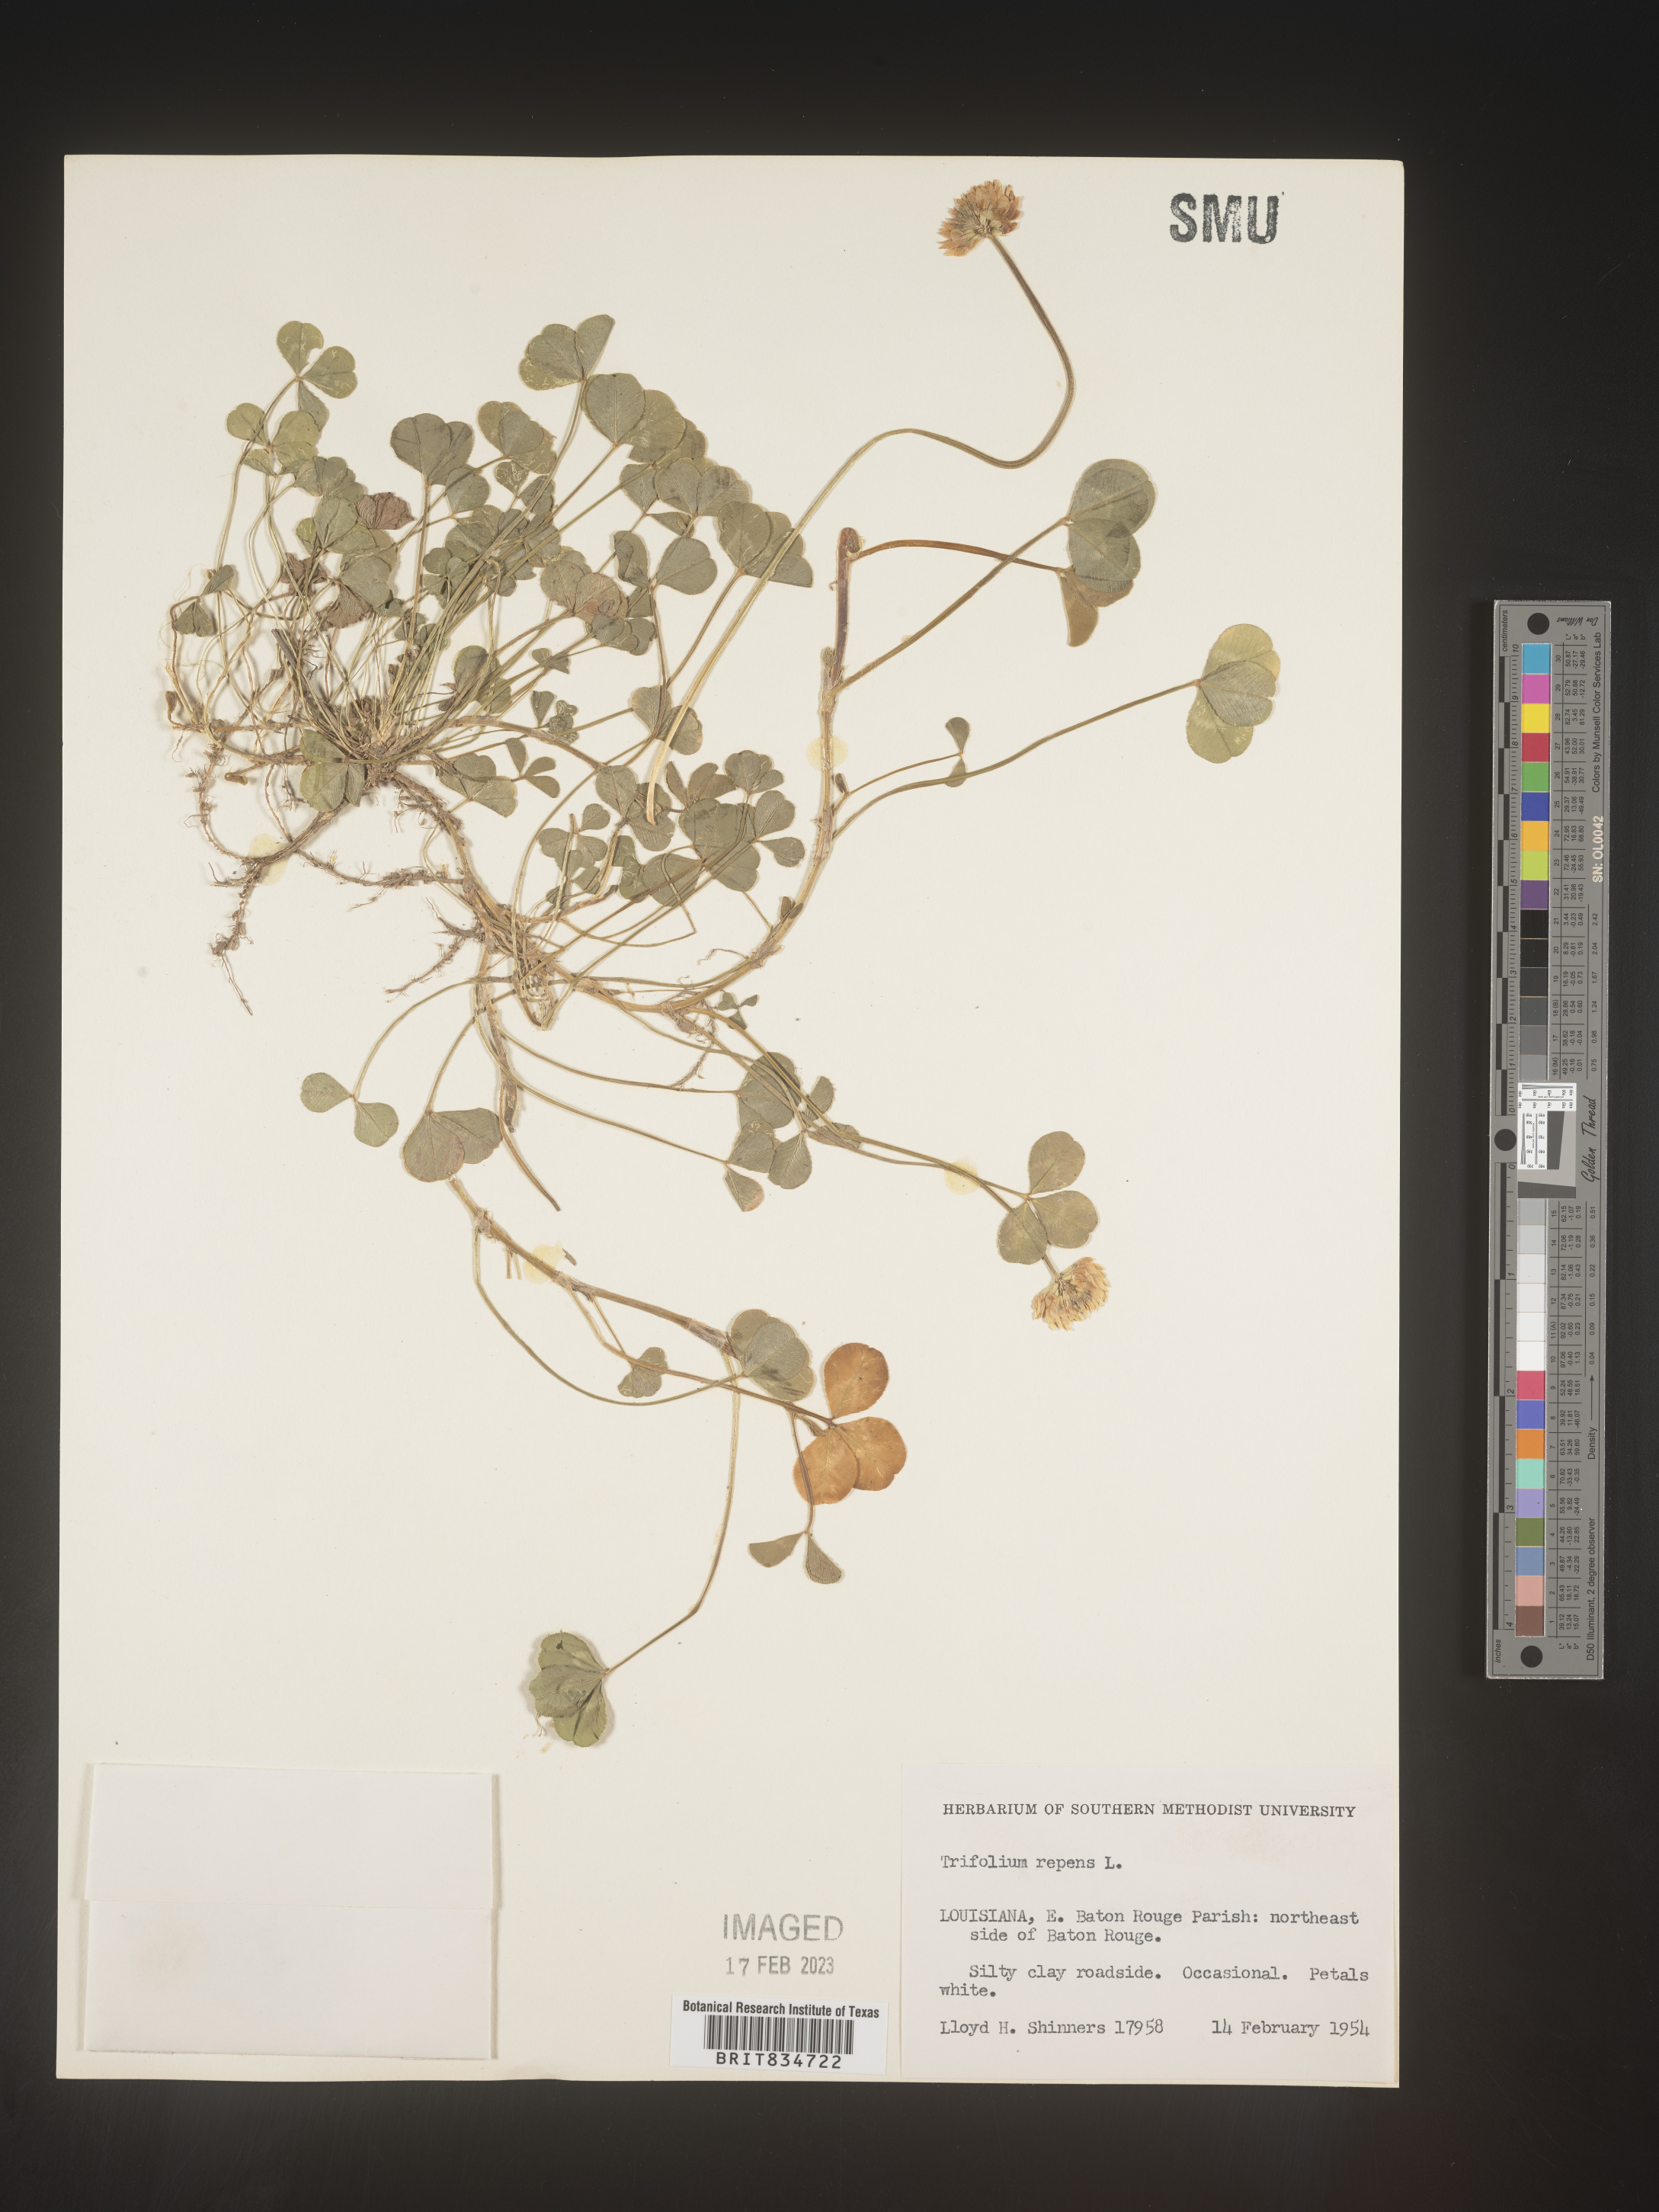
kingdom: Plantae
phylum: Tracheophyta
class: Magnoliopsida
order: Fabales
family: Fabaceae
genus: Trifolium
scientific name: Trifolium repens
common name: White clover
